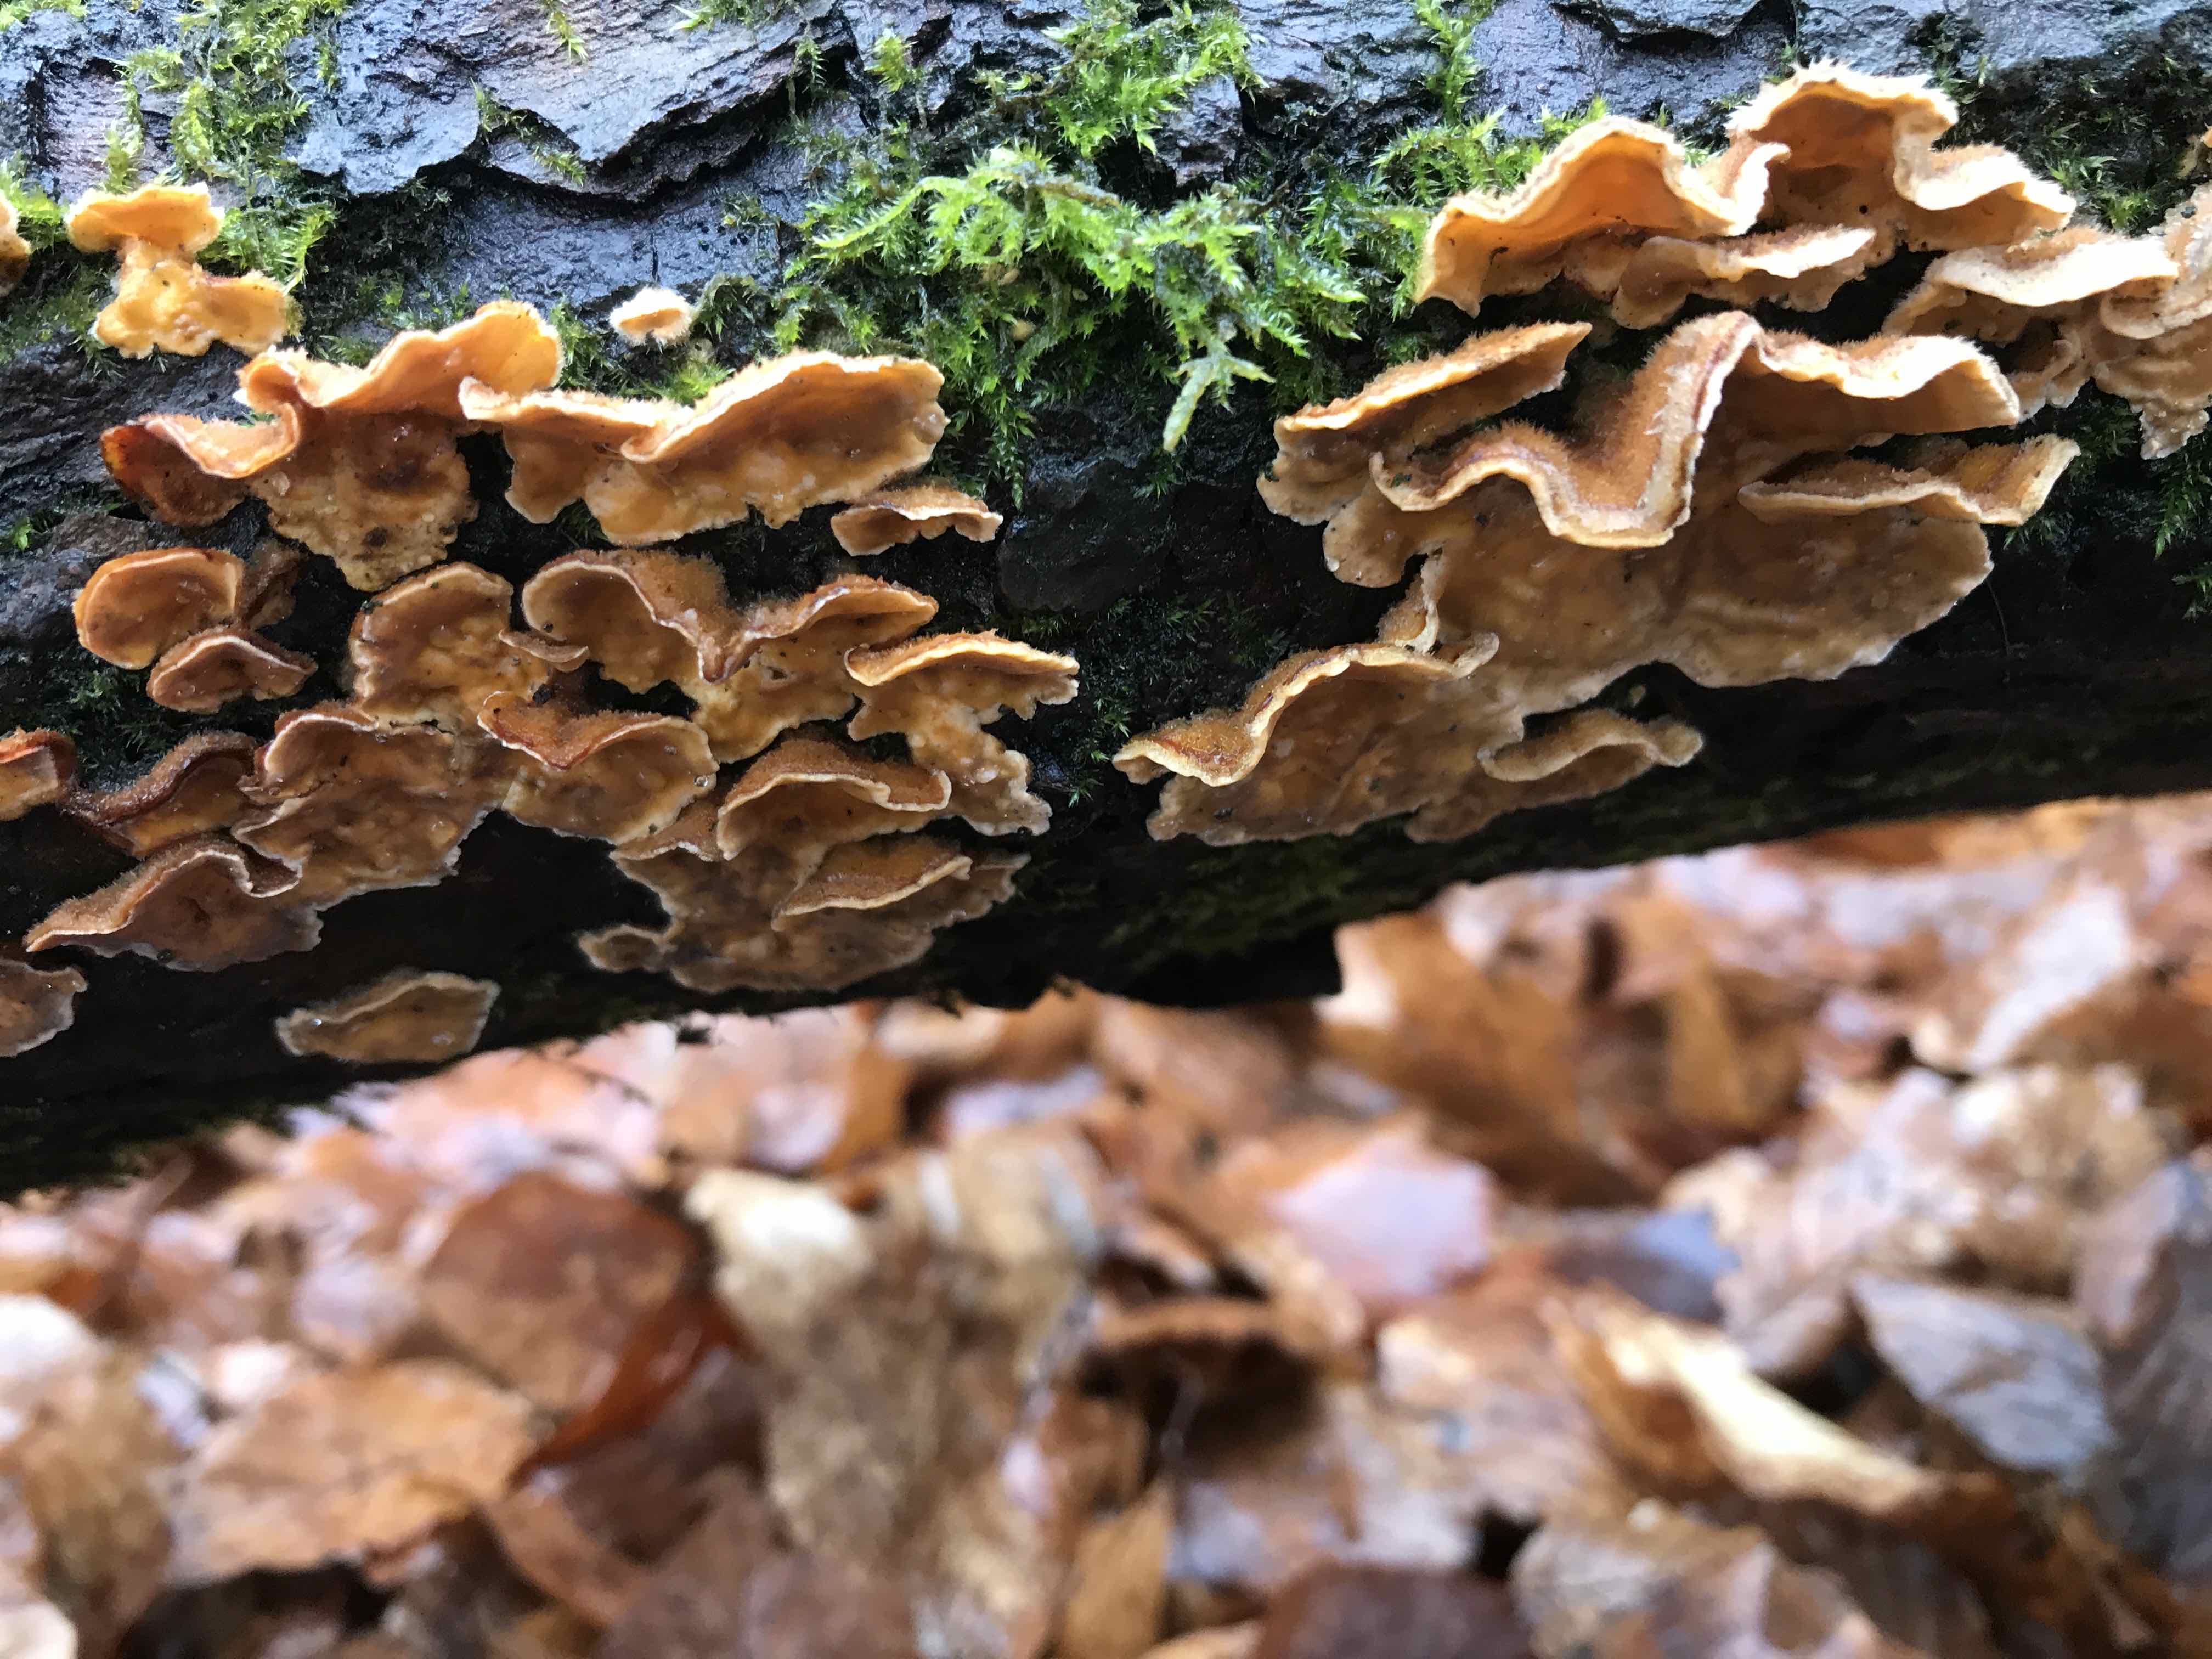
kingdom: Fungi
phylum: Basidiomycota
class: Agaricomycetes
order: Russulales
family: Stereaceae
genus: Stereum
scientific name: Stereum hirsutum
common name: håret lædersvamp
